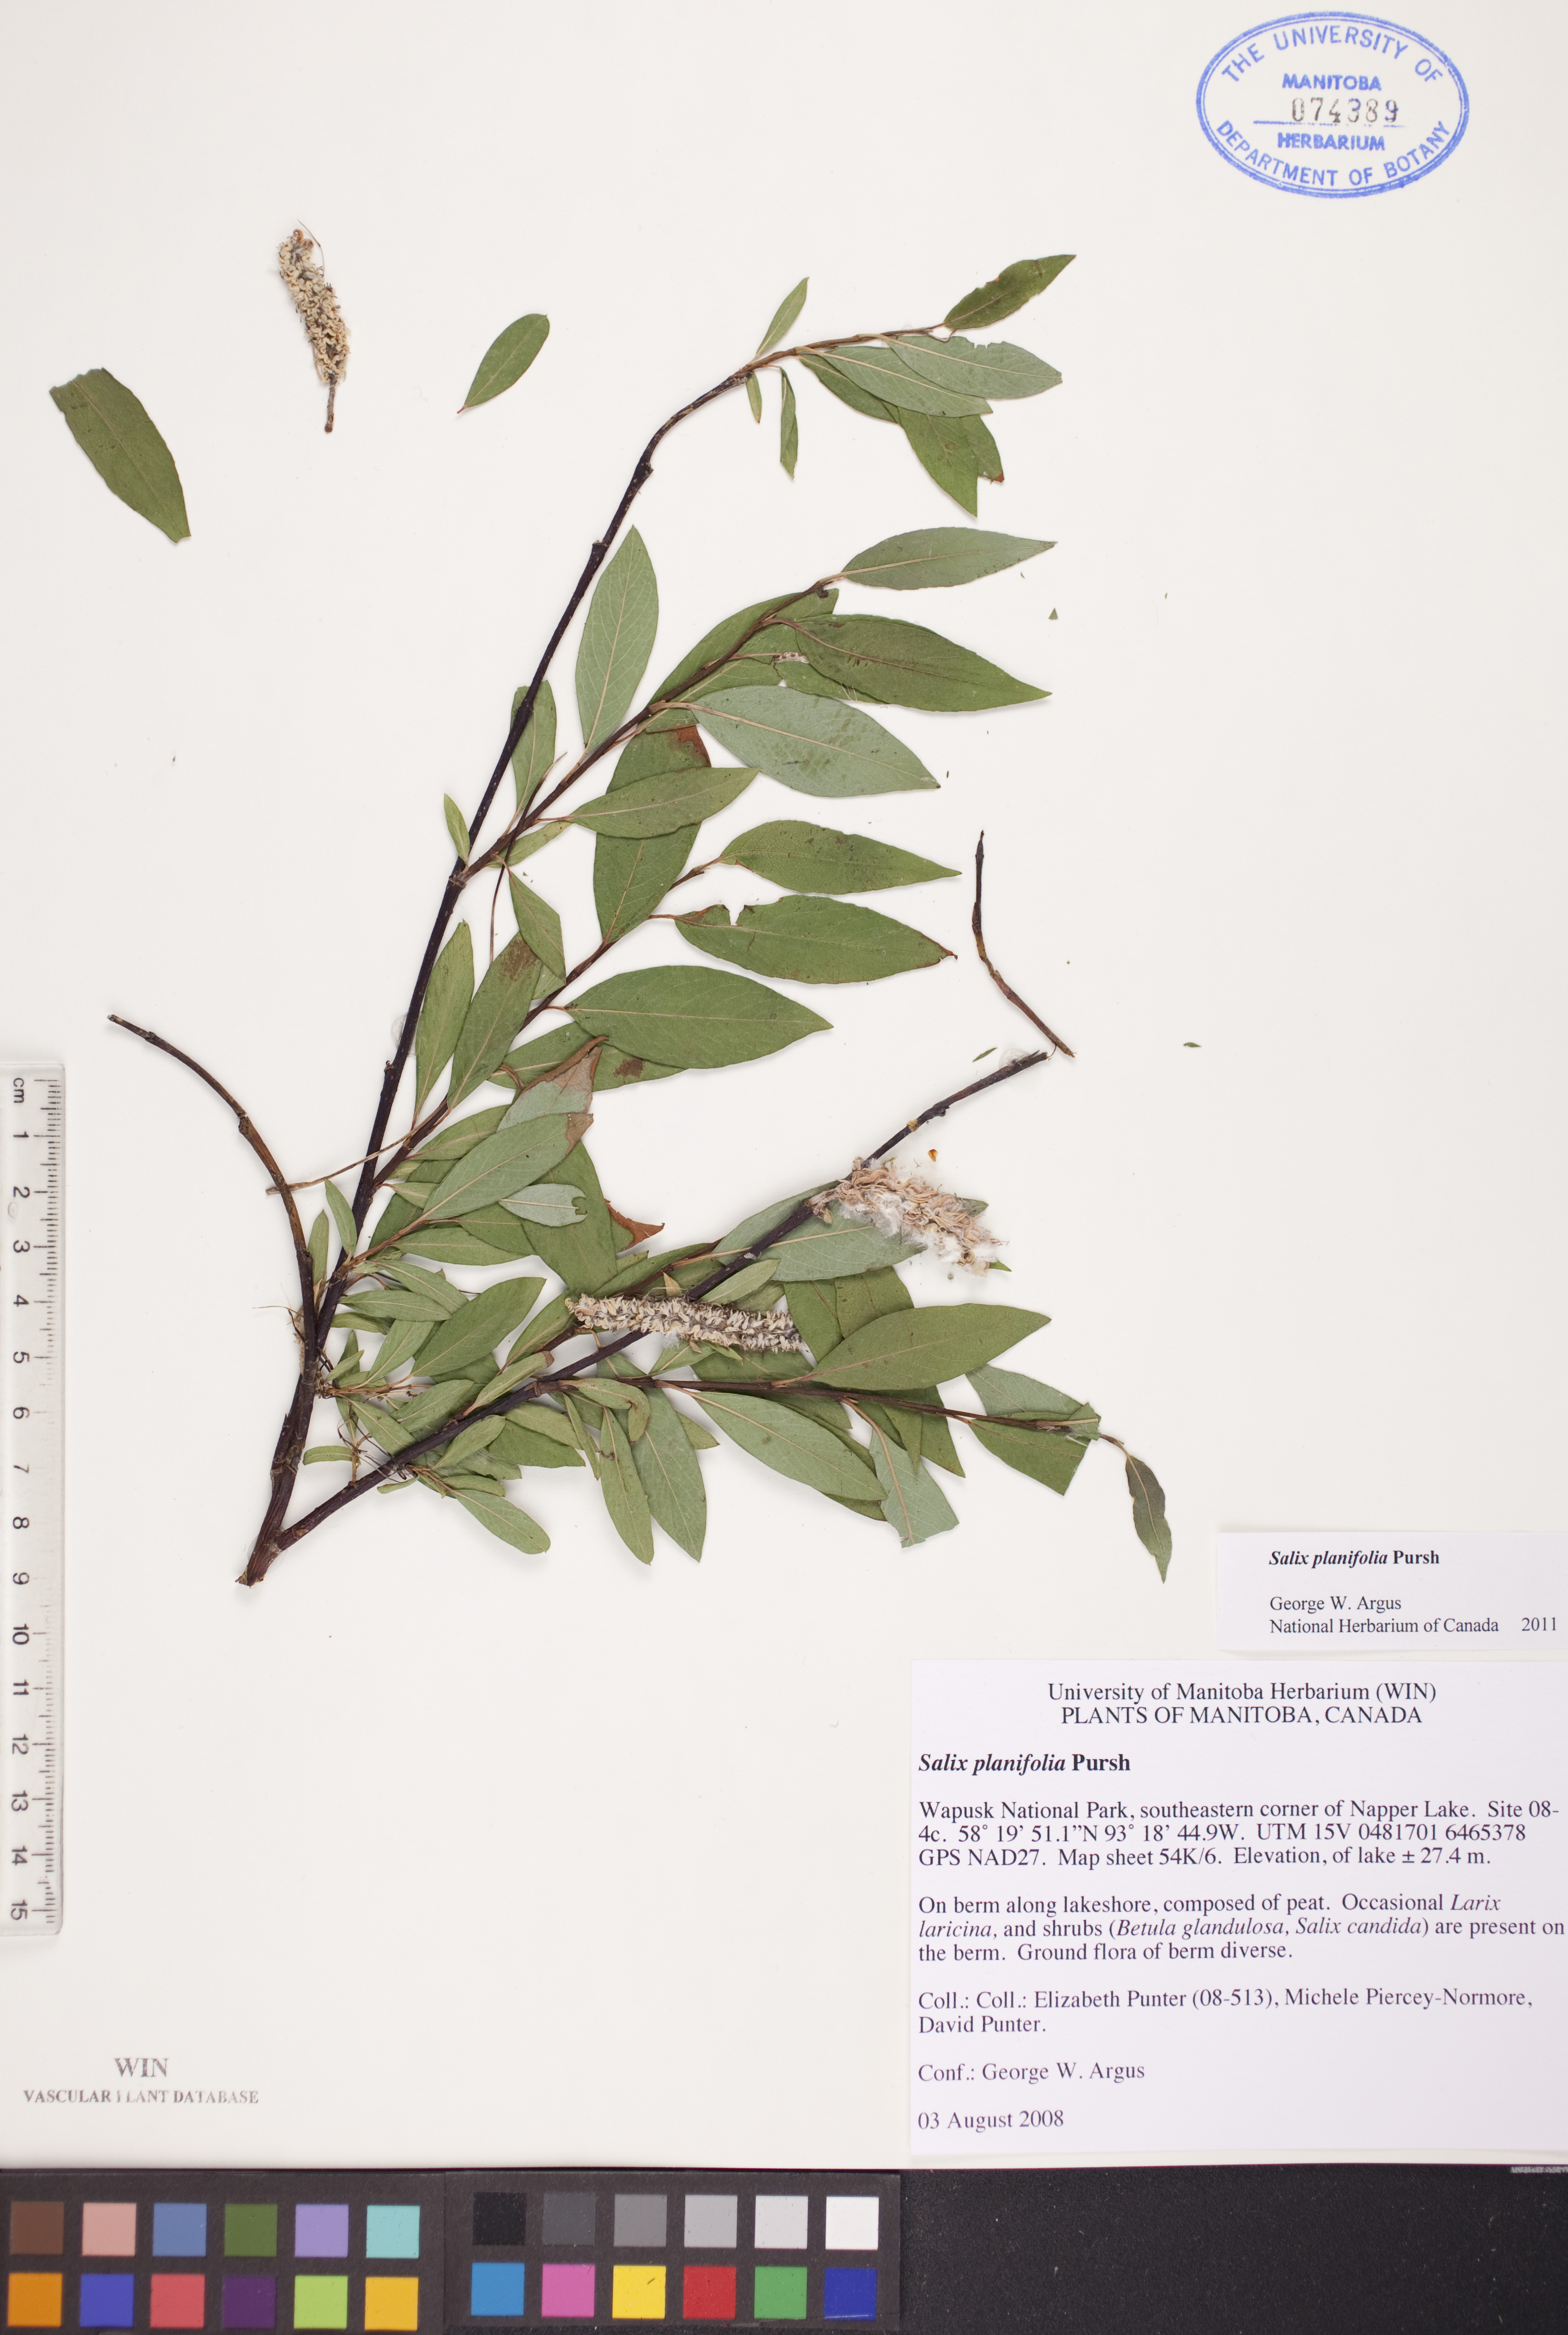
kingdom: Plantae
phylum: Tracheophyta
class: Magnoliopsida
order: Malpighiales
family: Salicaceae
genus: Salix
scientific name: Salix planifolia
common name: Mountain willow
